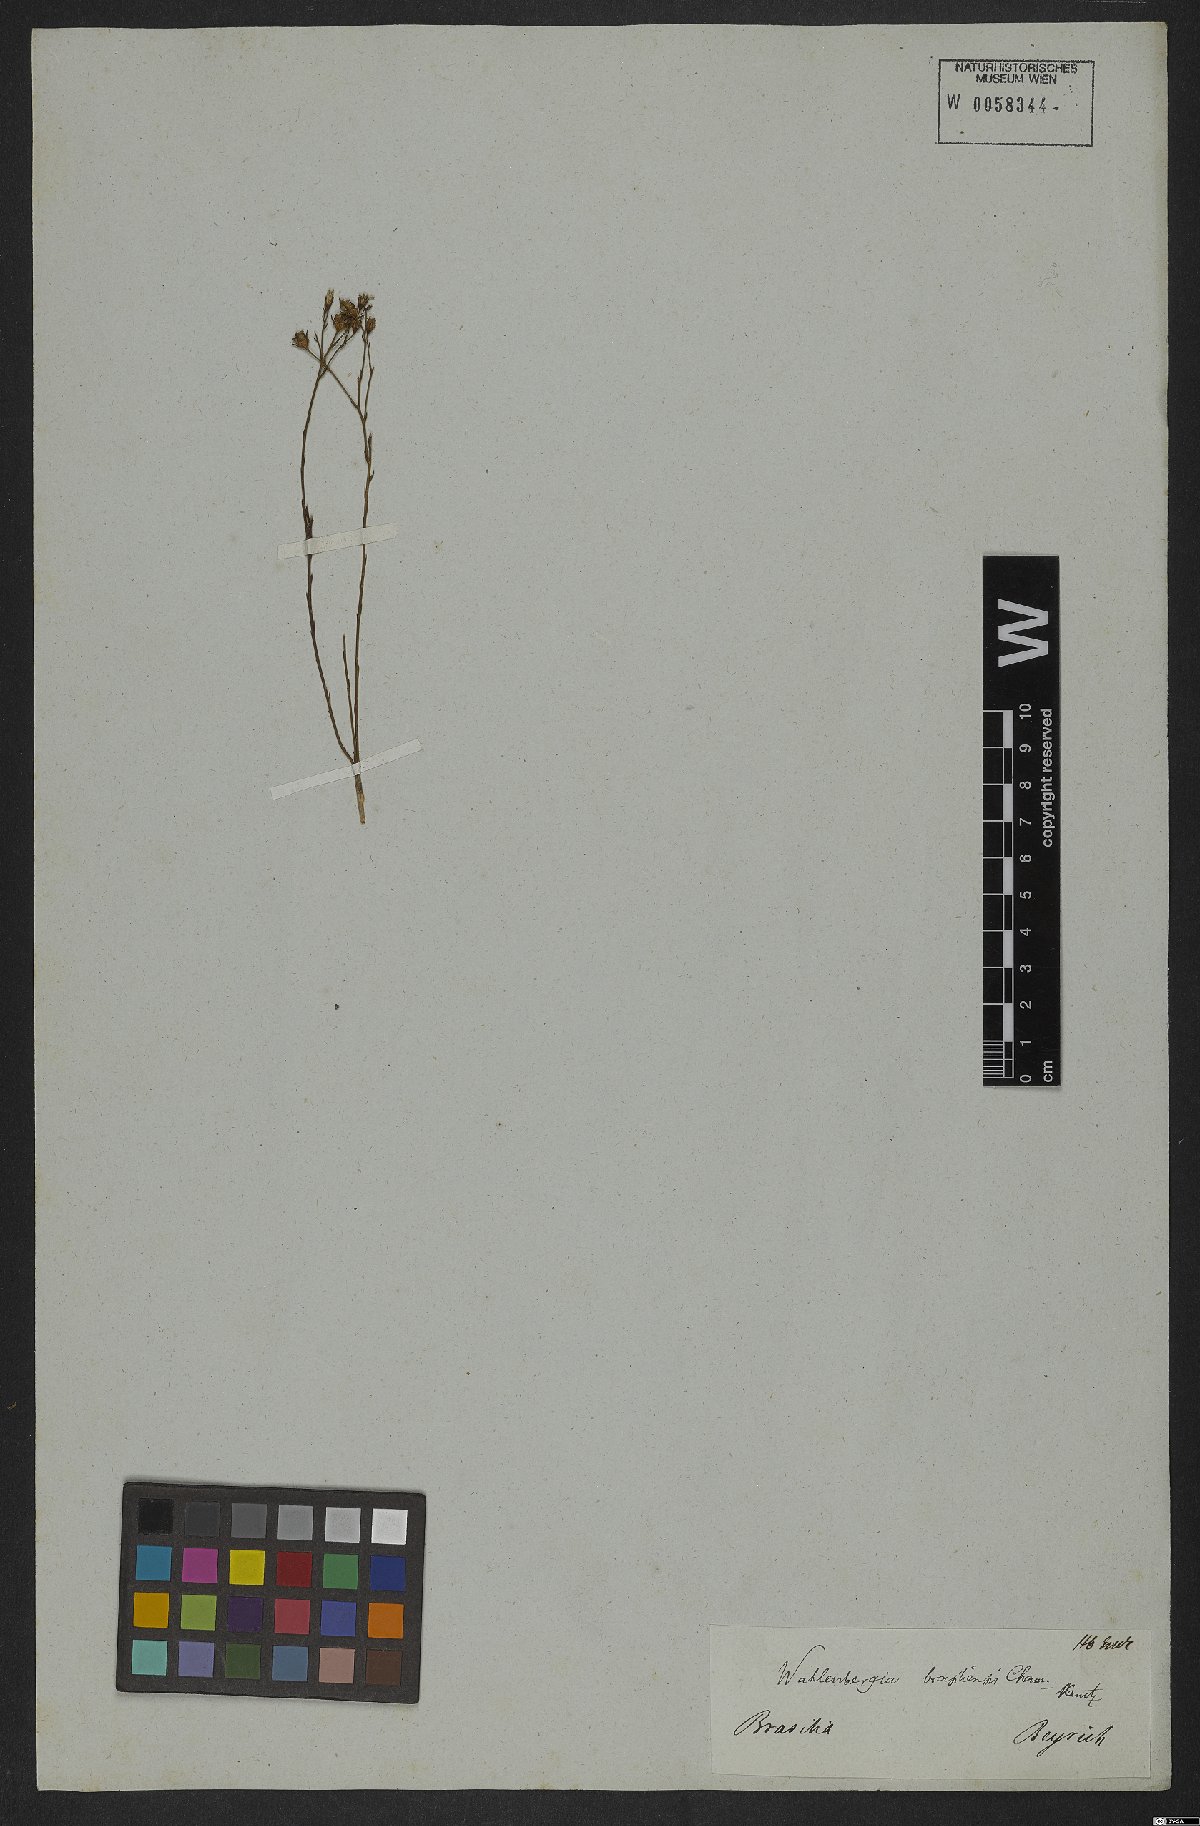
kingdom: Plantae
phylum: Tracheophyta
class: Magnoliopsida
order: Asterales
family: Campanulaceae
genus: Wahlenbergia
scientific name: Wahlenbergia brasiliensis
